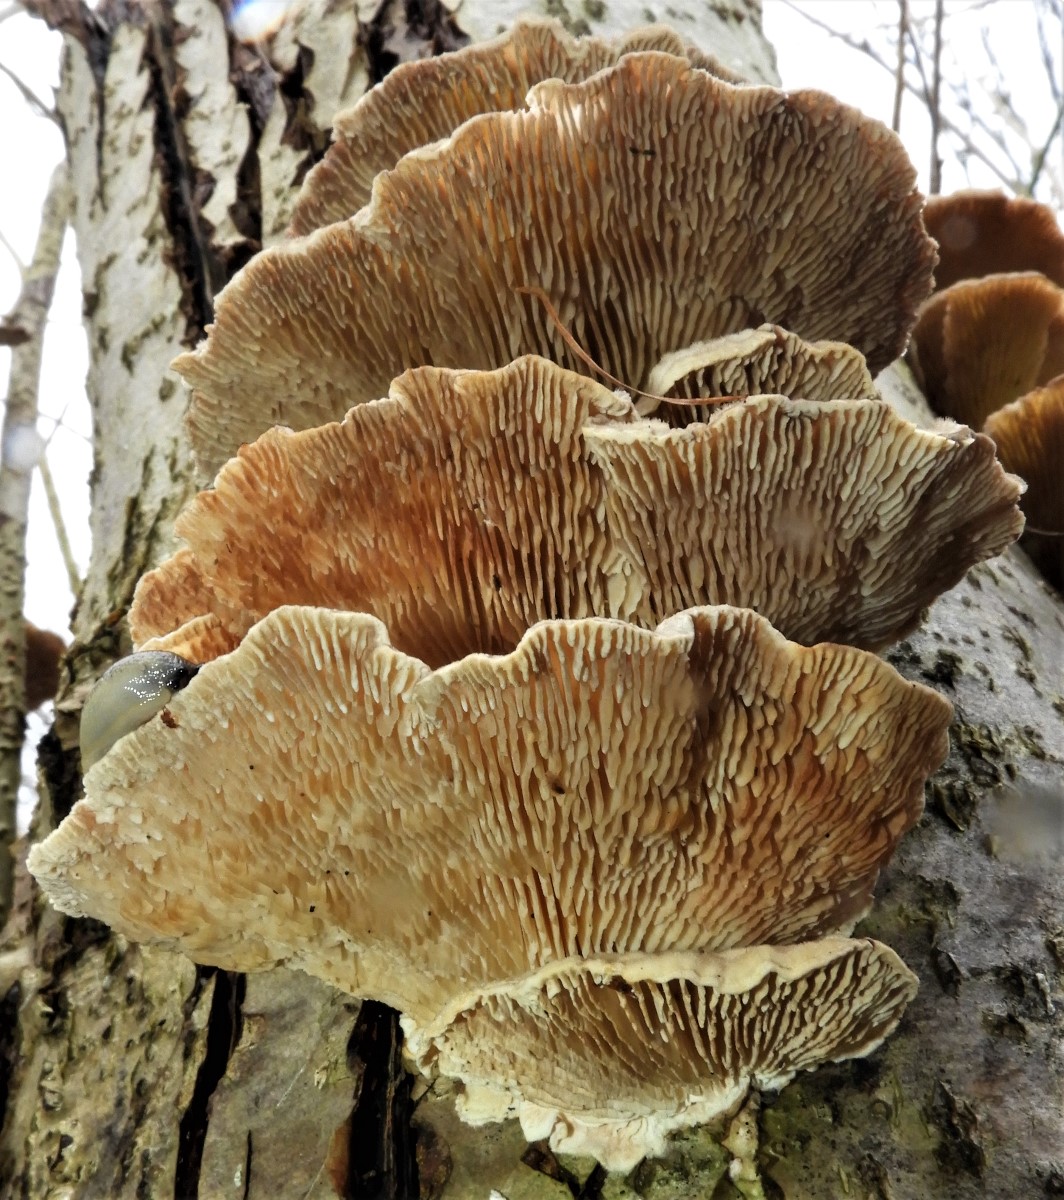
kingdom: Fungi
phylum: Basidiomycota
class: Agaricomycetes
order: Polyporales
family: Polyporaceae
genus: Lenzites
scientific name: Lenzites betulinus
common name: birke-læderporesvamp
